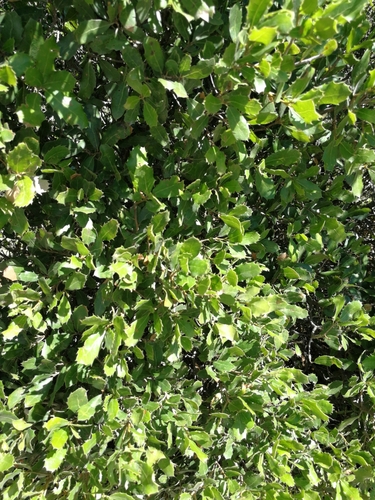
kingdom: Plantae
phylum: Tracheophyta
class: Magnoliopsida
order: Fagales
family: Fagaceae
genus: Quercus
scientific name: Quercus coccifera
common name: Kermes oak
